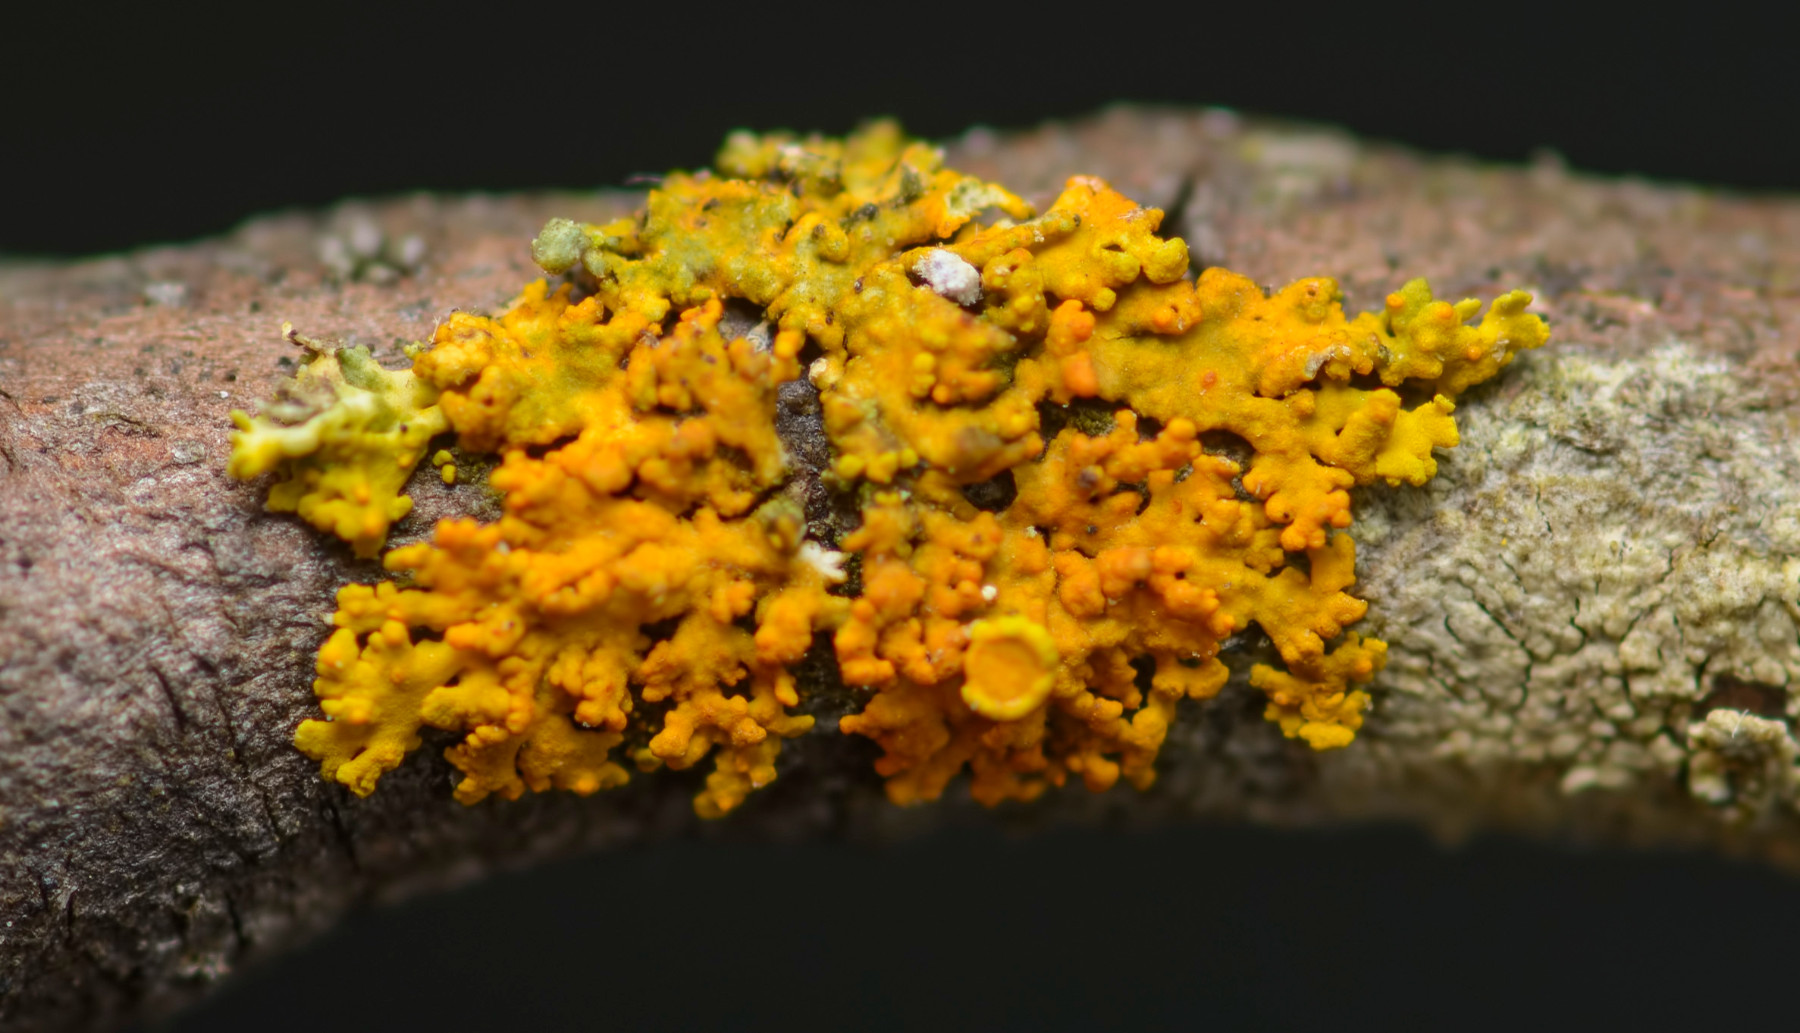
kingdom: Fungi
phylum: Ascomycota
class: Lecanoromycetes
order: Teloschistales
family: Teloschistaceae
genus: Polycauliona
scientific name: Polycauliona polycarpa
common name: mangefrugtet orangelav
